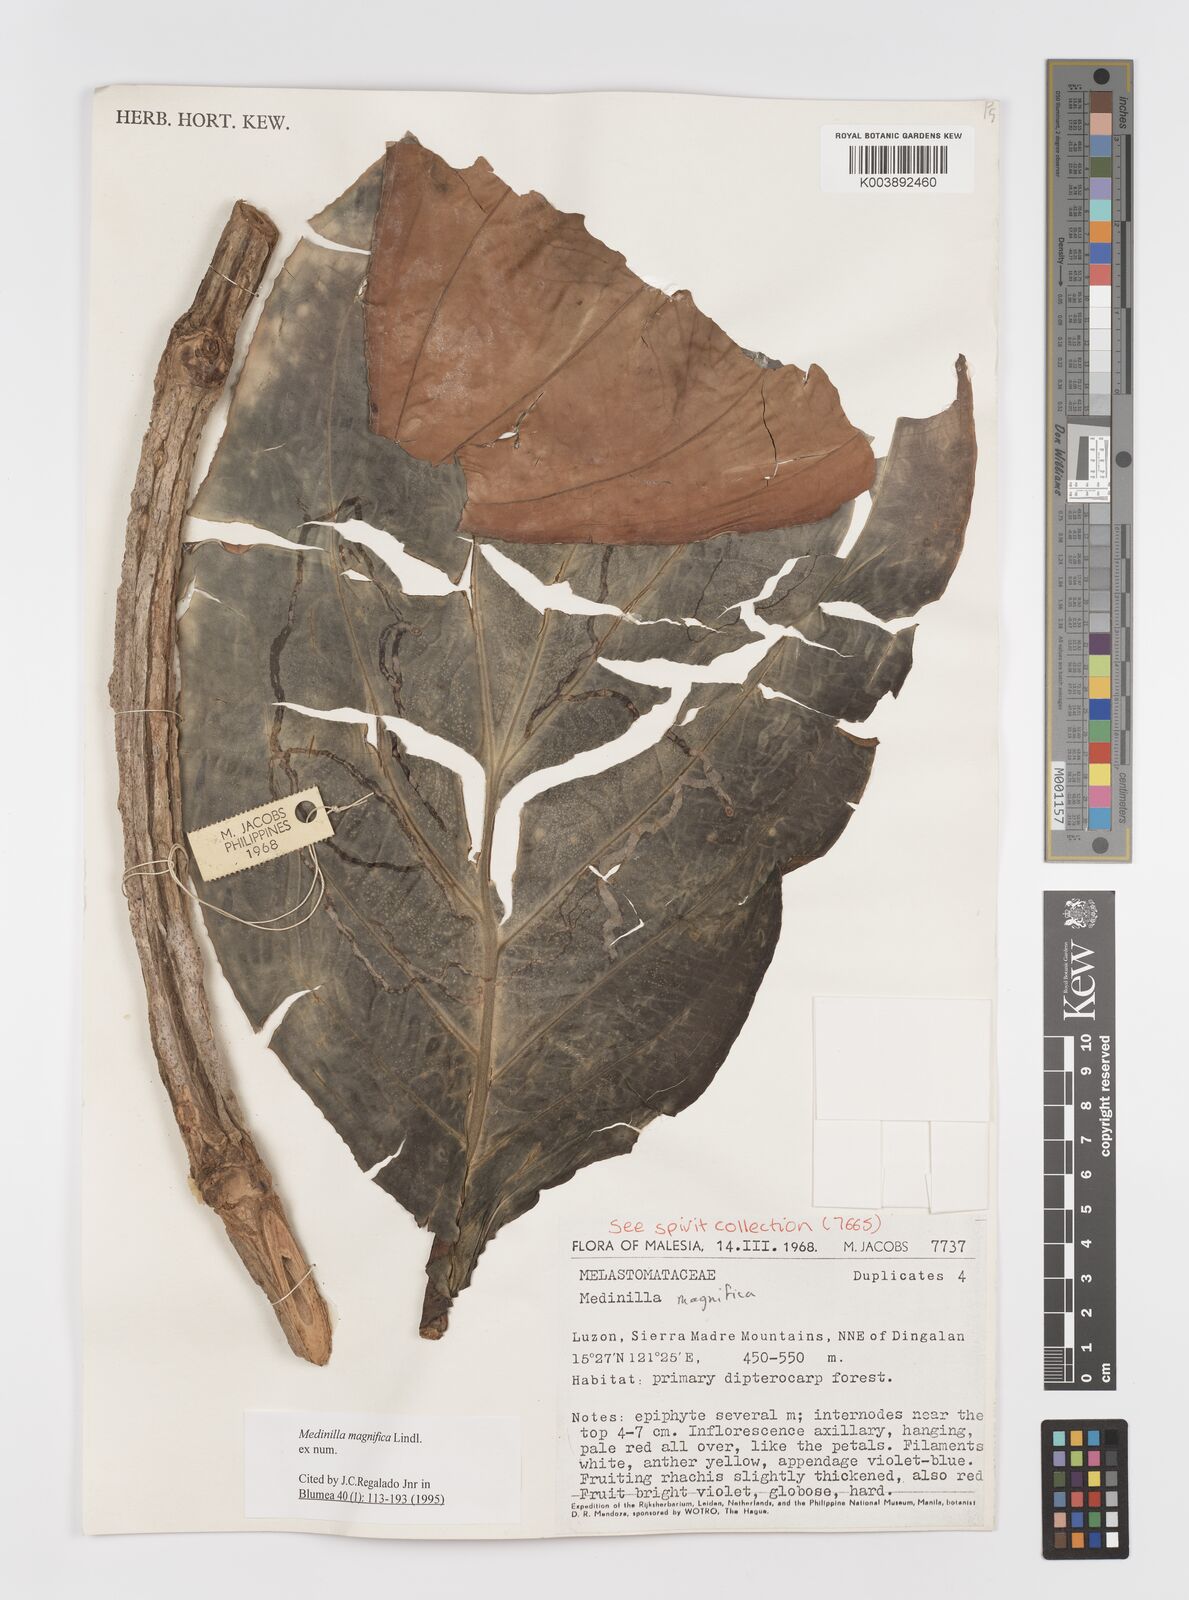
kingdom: Plantae
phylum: Tracheophyta
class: Magnoliopsida
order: Myrtales
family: Melastomataceae
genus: Medinilla
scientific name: Medinilla magnifica
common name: Showy medinilla
